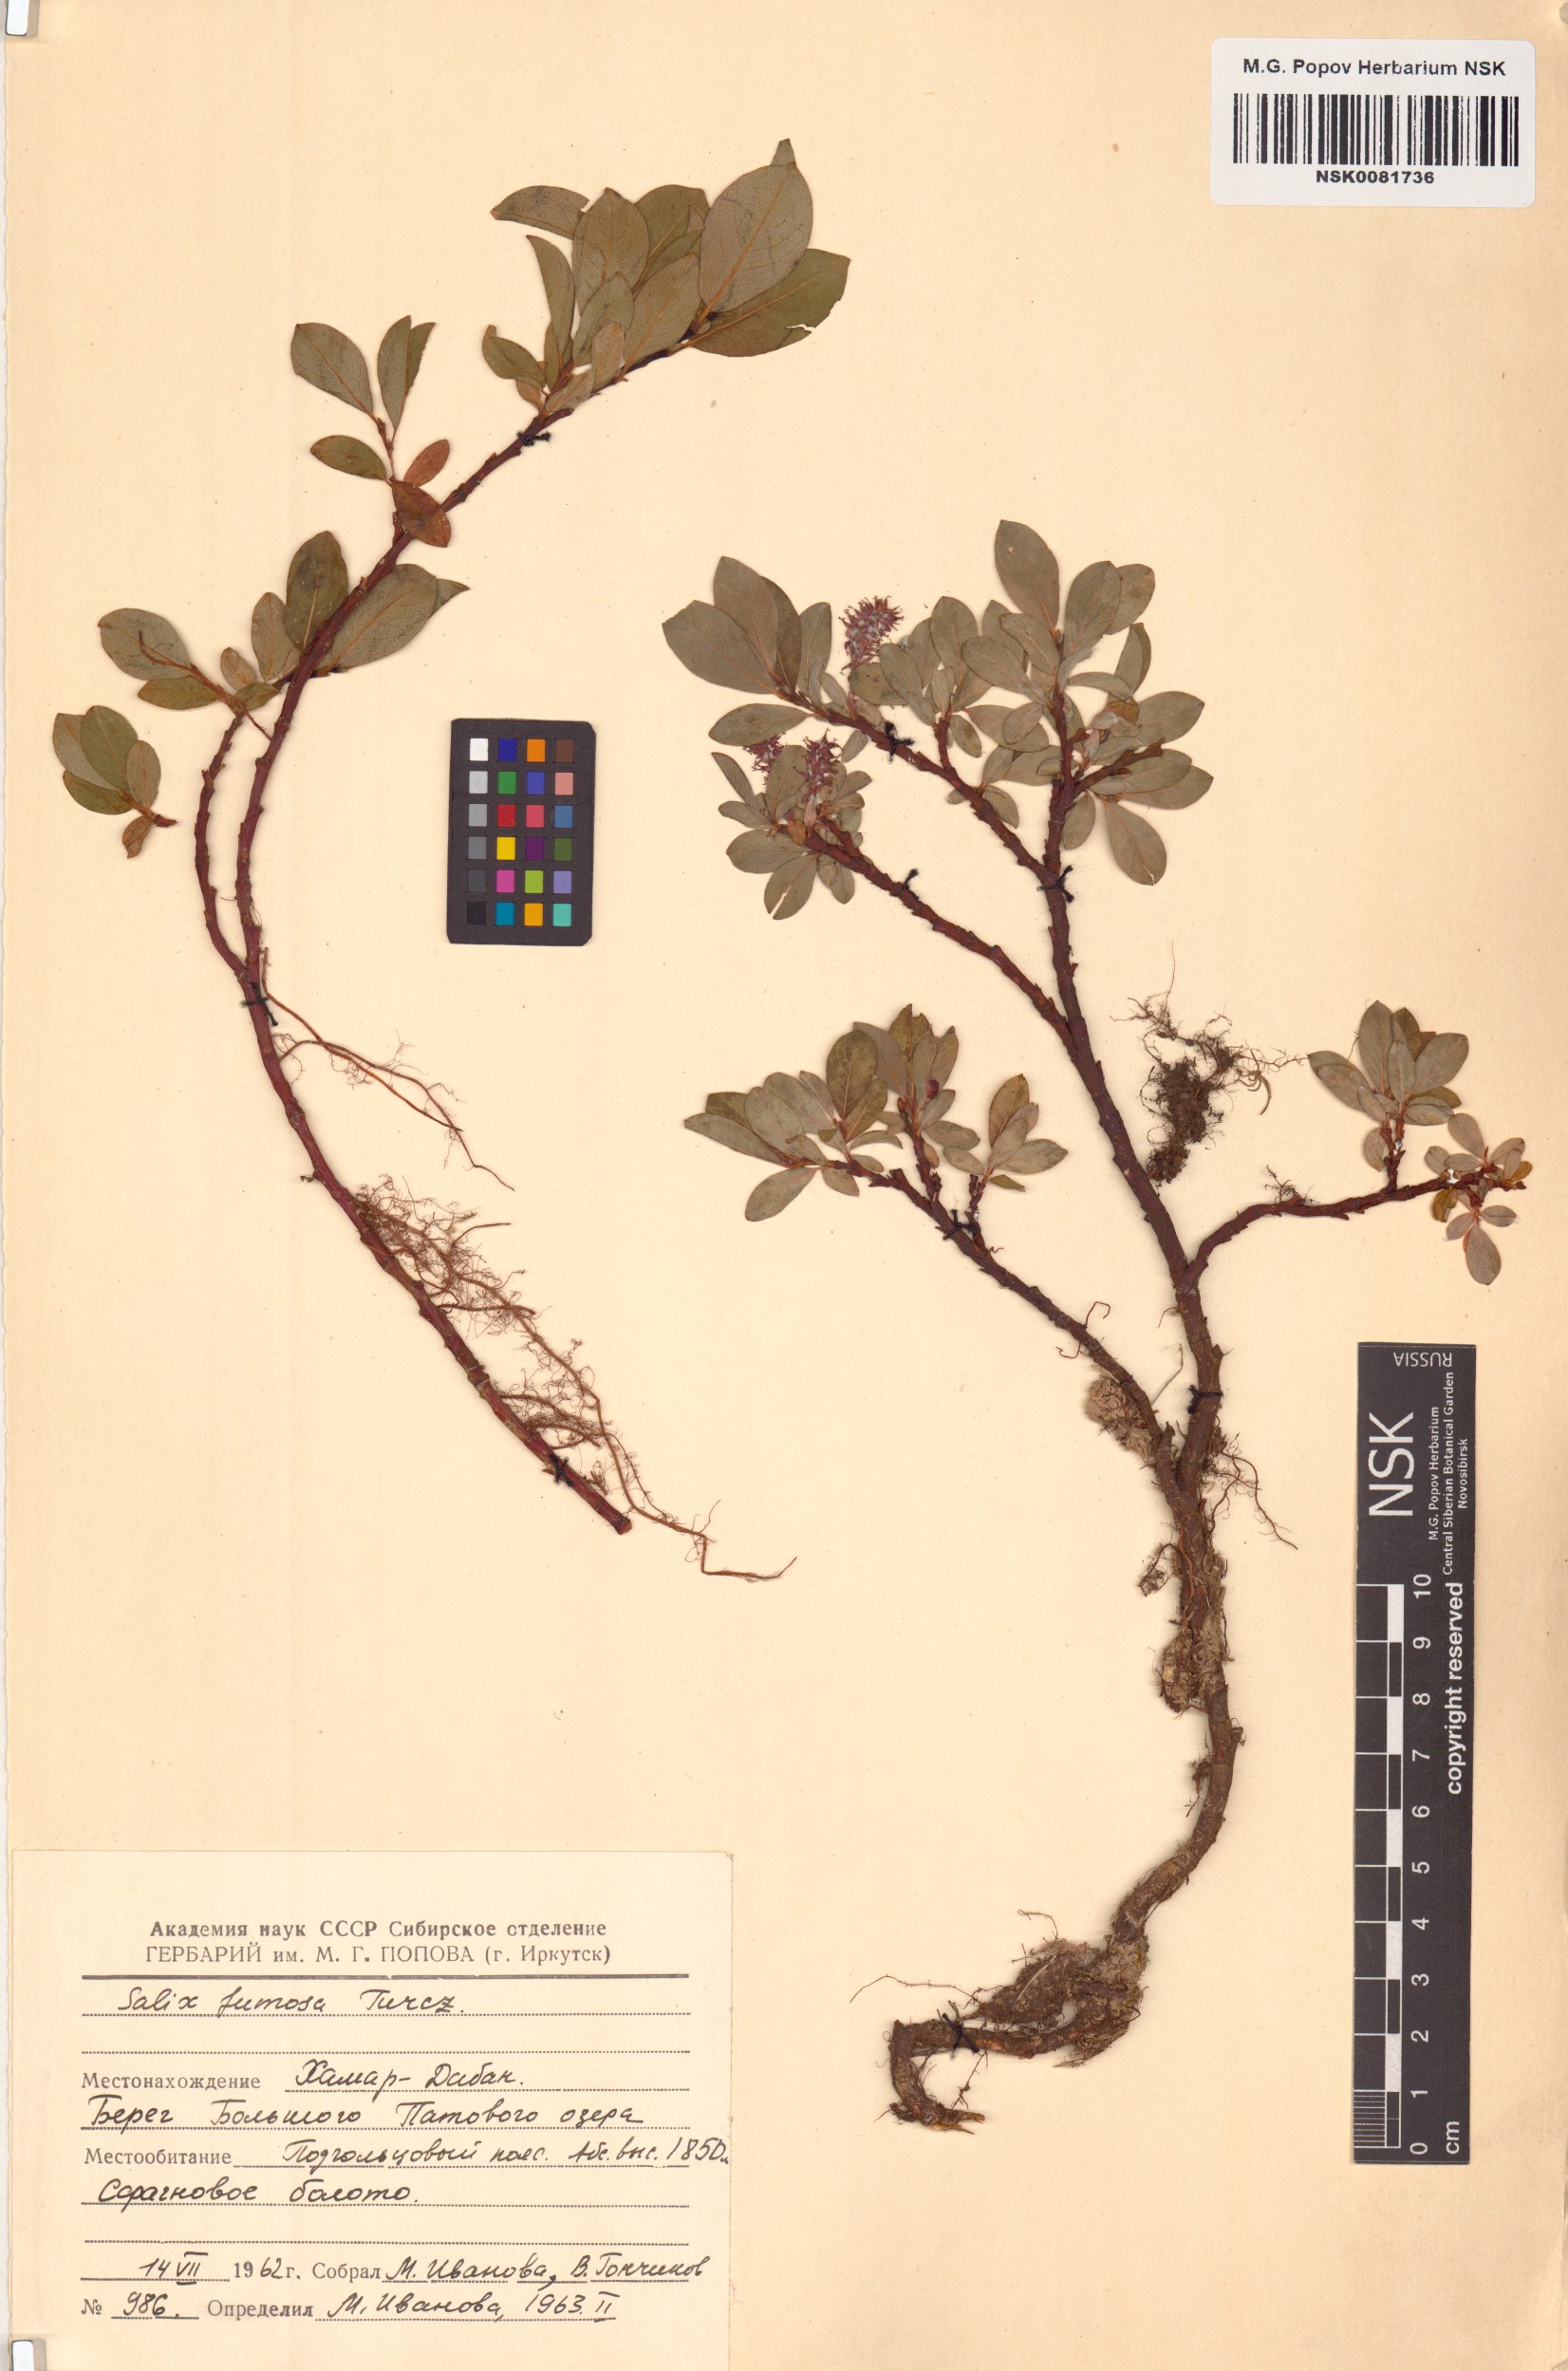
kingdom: Plantae
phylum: Tracheophyta
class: Magnoliopsida
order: Malpighiales
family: Salicaceae
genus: Salix
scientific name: Salix saxatilis
